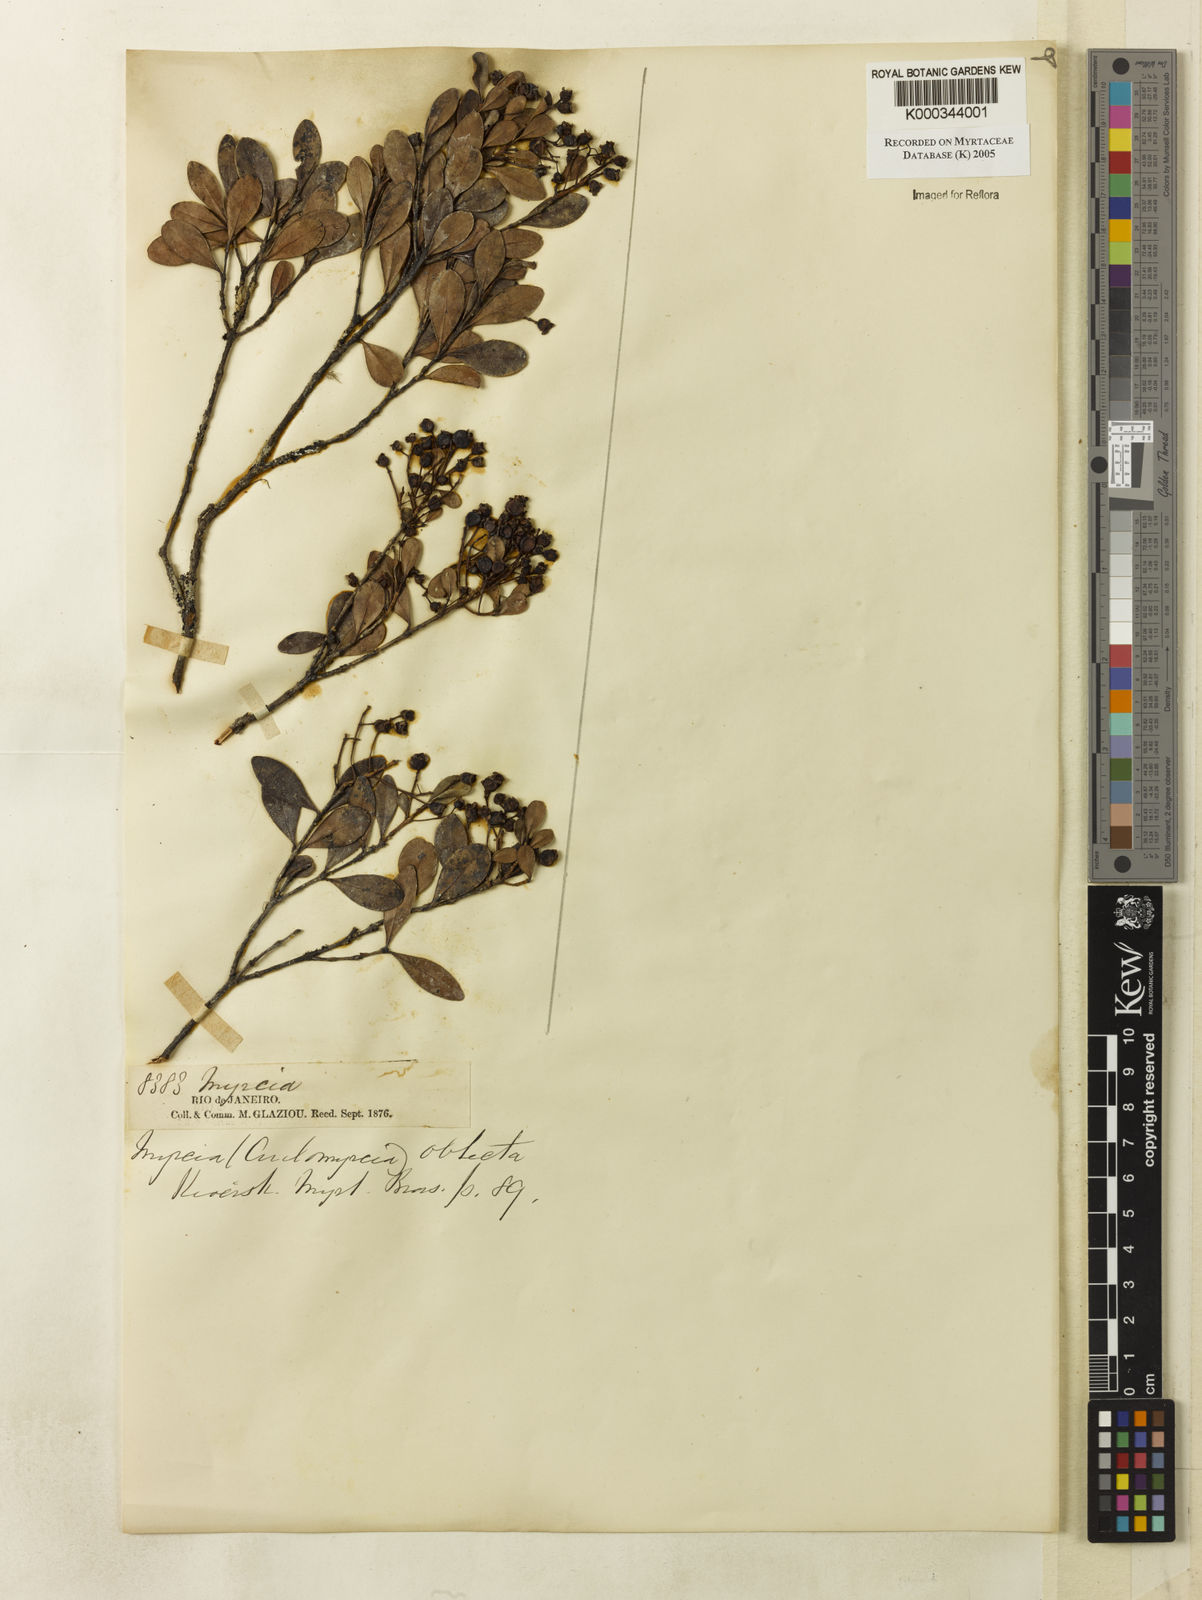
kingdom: Plantae
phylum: Tracheophyta
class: Magnoliopsida
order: Myrtales
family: Myrtaceae
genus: Myrcia
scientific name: Myrcia guianensis
